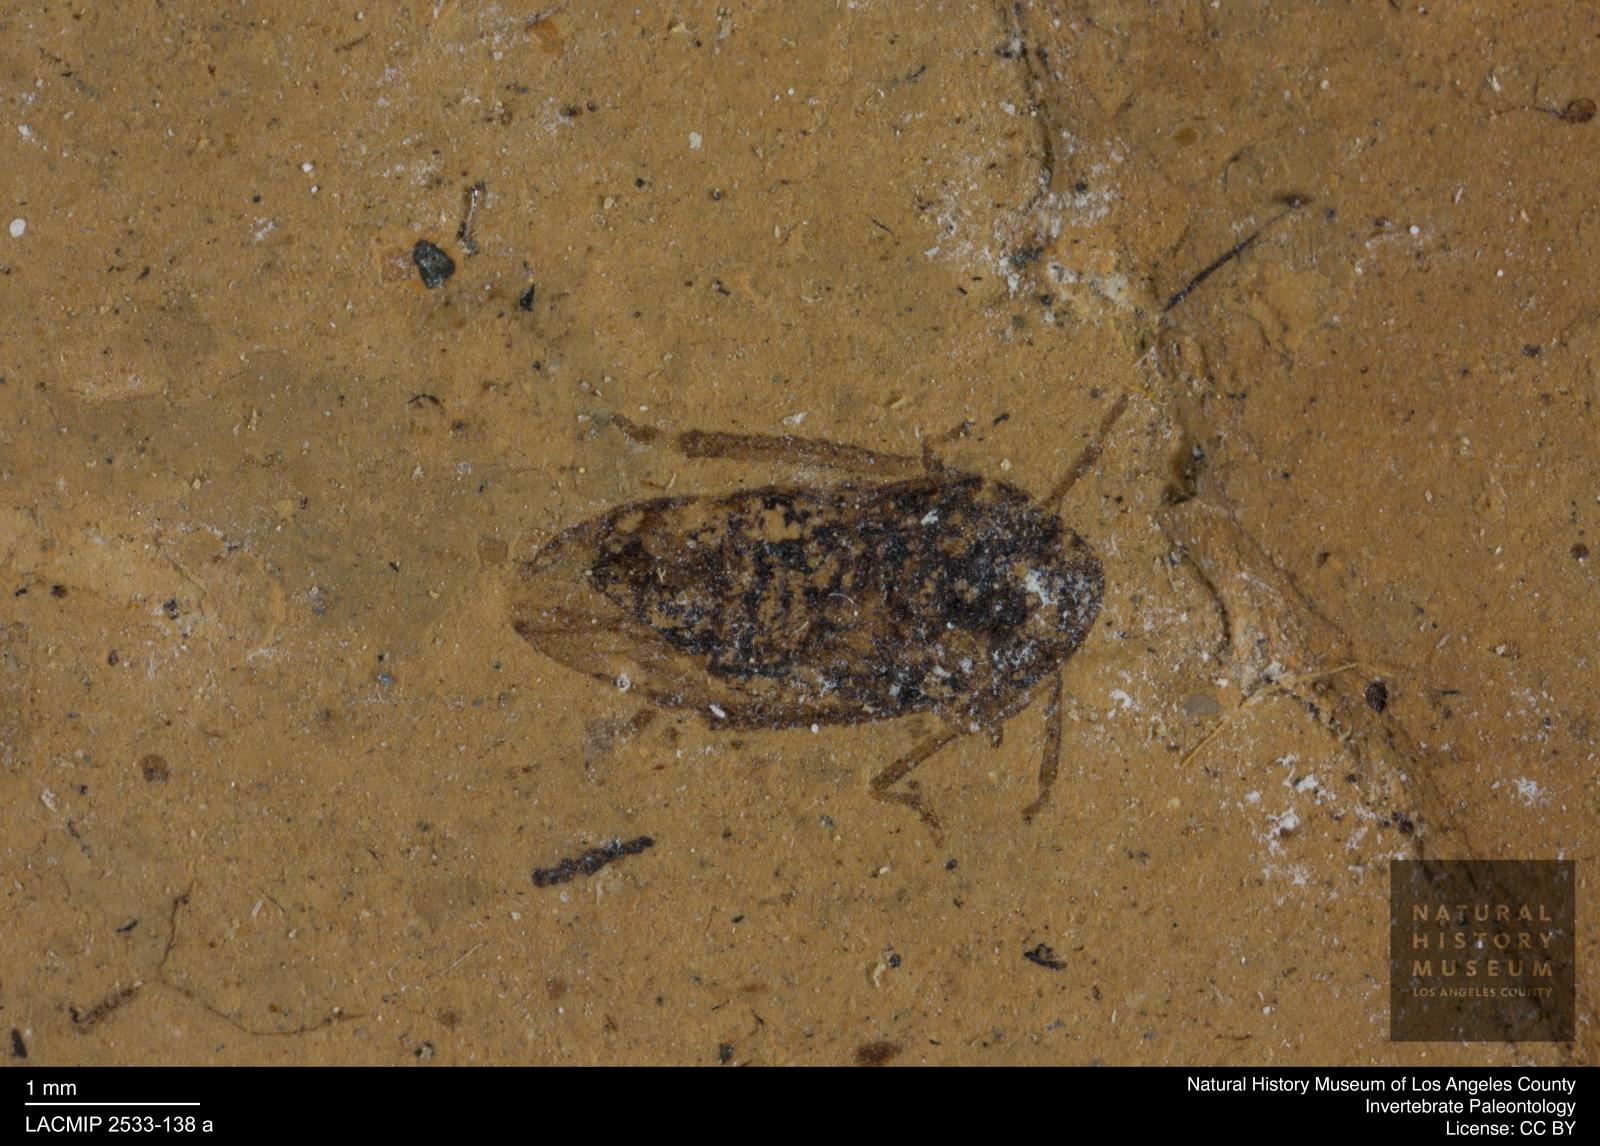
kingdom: Animalia
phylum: Arthropoda
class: Insecta
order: Hemiptera
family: Cicadellidae
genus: Iassus
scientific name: Iassus lunatus
